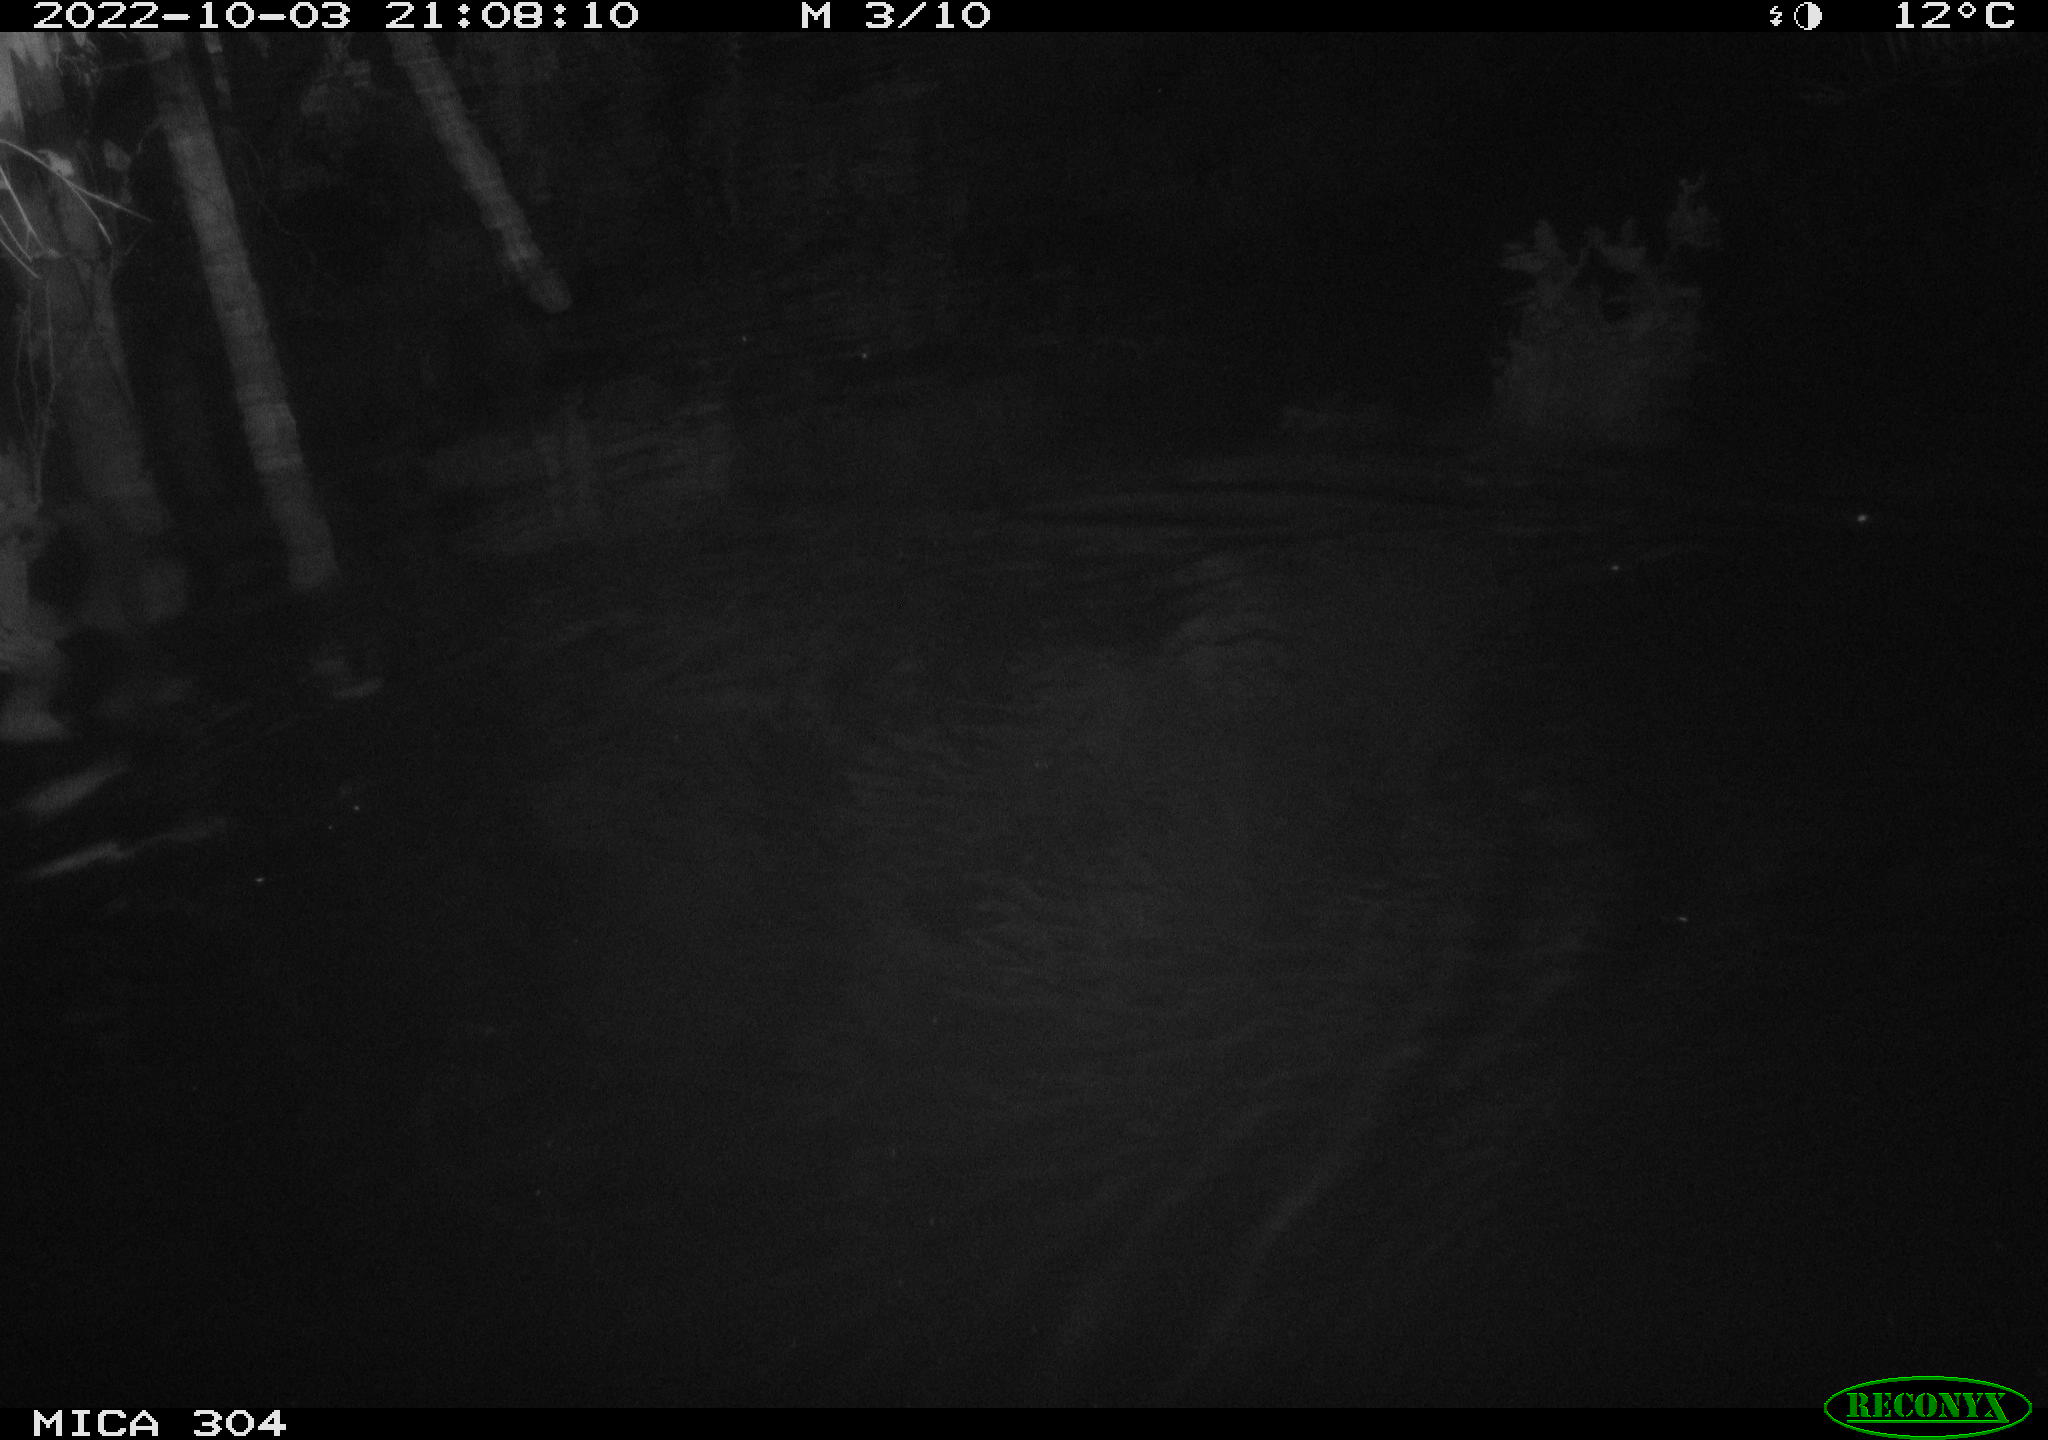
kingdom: Animalia
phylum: Chordata
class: Mammalia
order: Rodentia
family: Muridae
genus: Rattus
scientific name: Rattus norvegicus
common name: Brown rat
